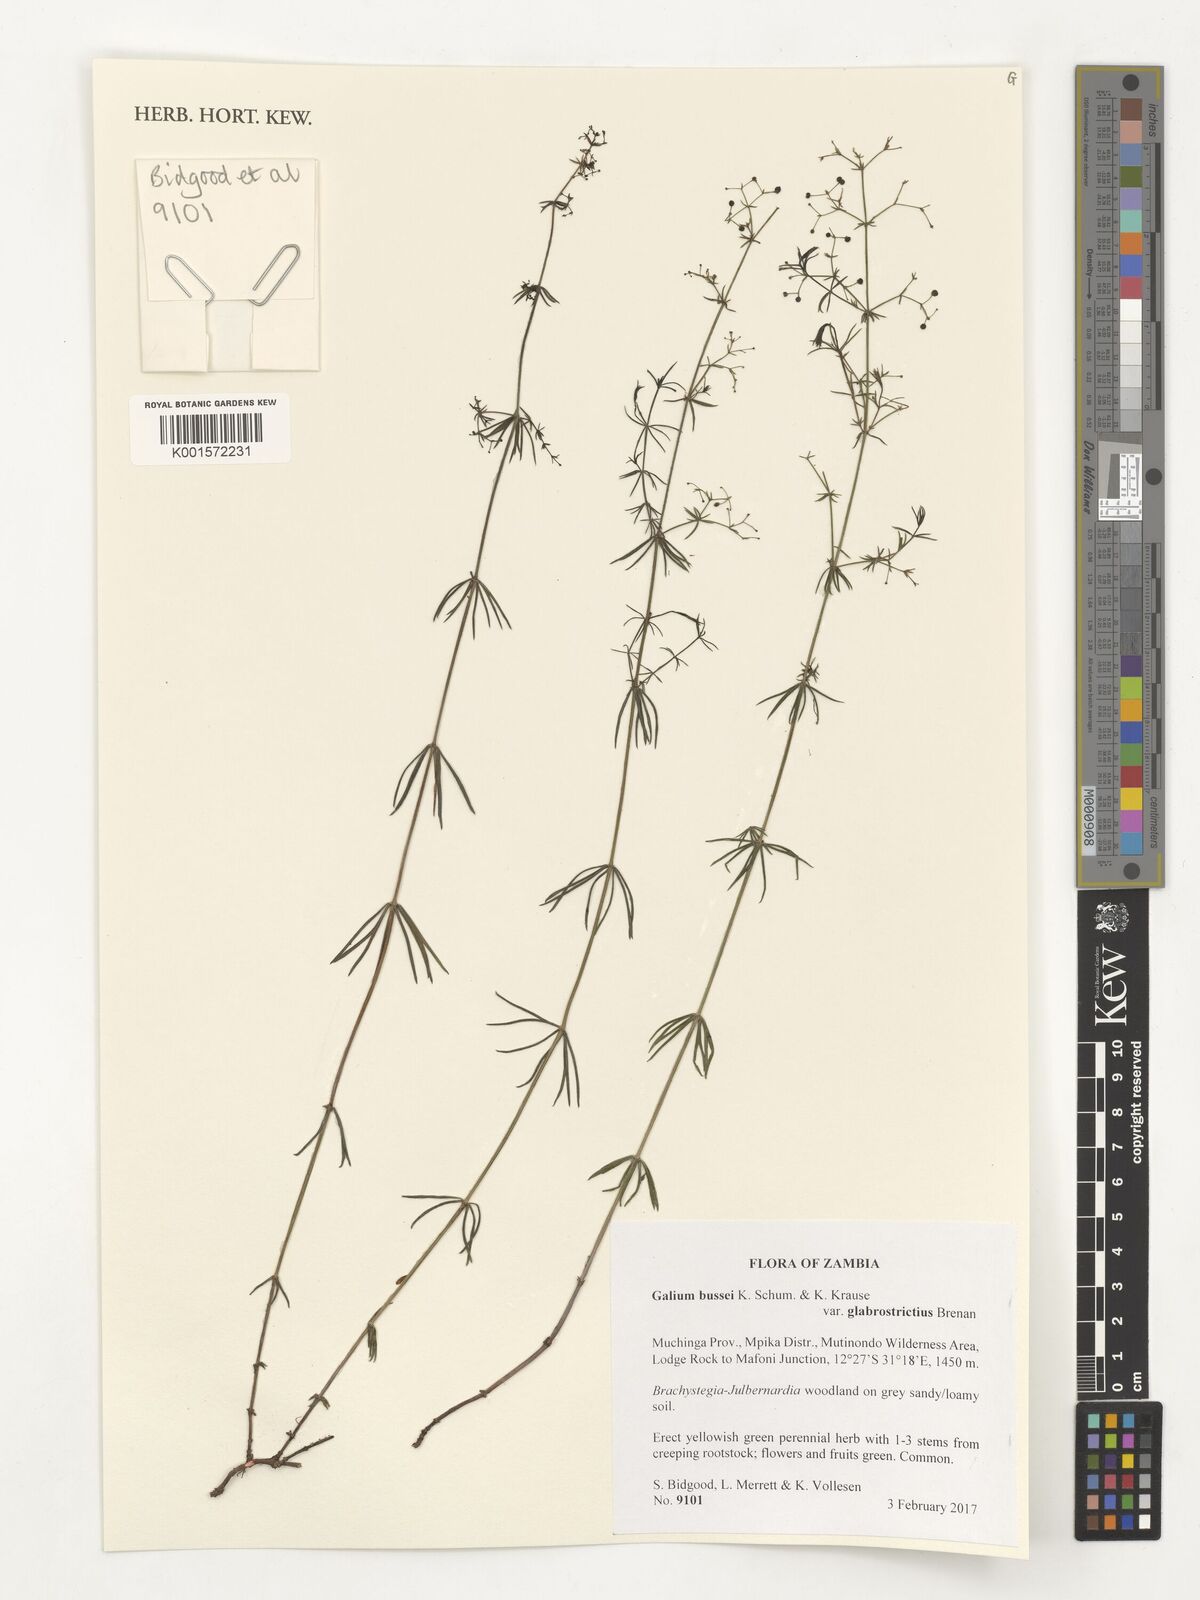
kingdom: Plantae
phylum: Tracheophyta
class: Magnoliopsida
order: Gentianales
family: Rubiaceae
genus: Galium
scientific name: Galium bussei
